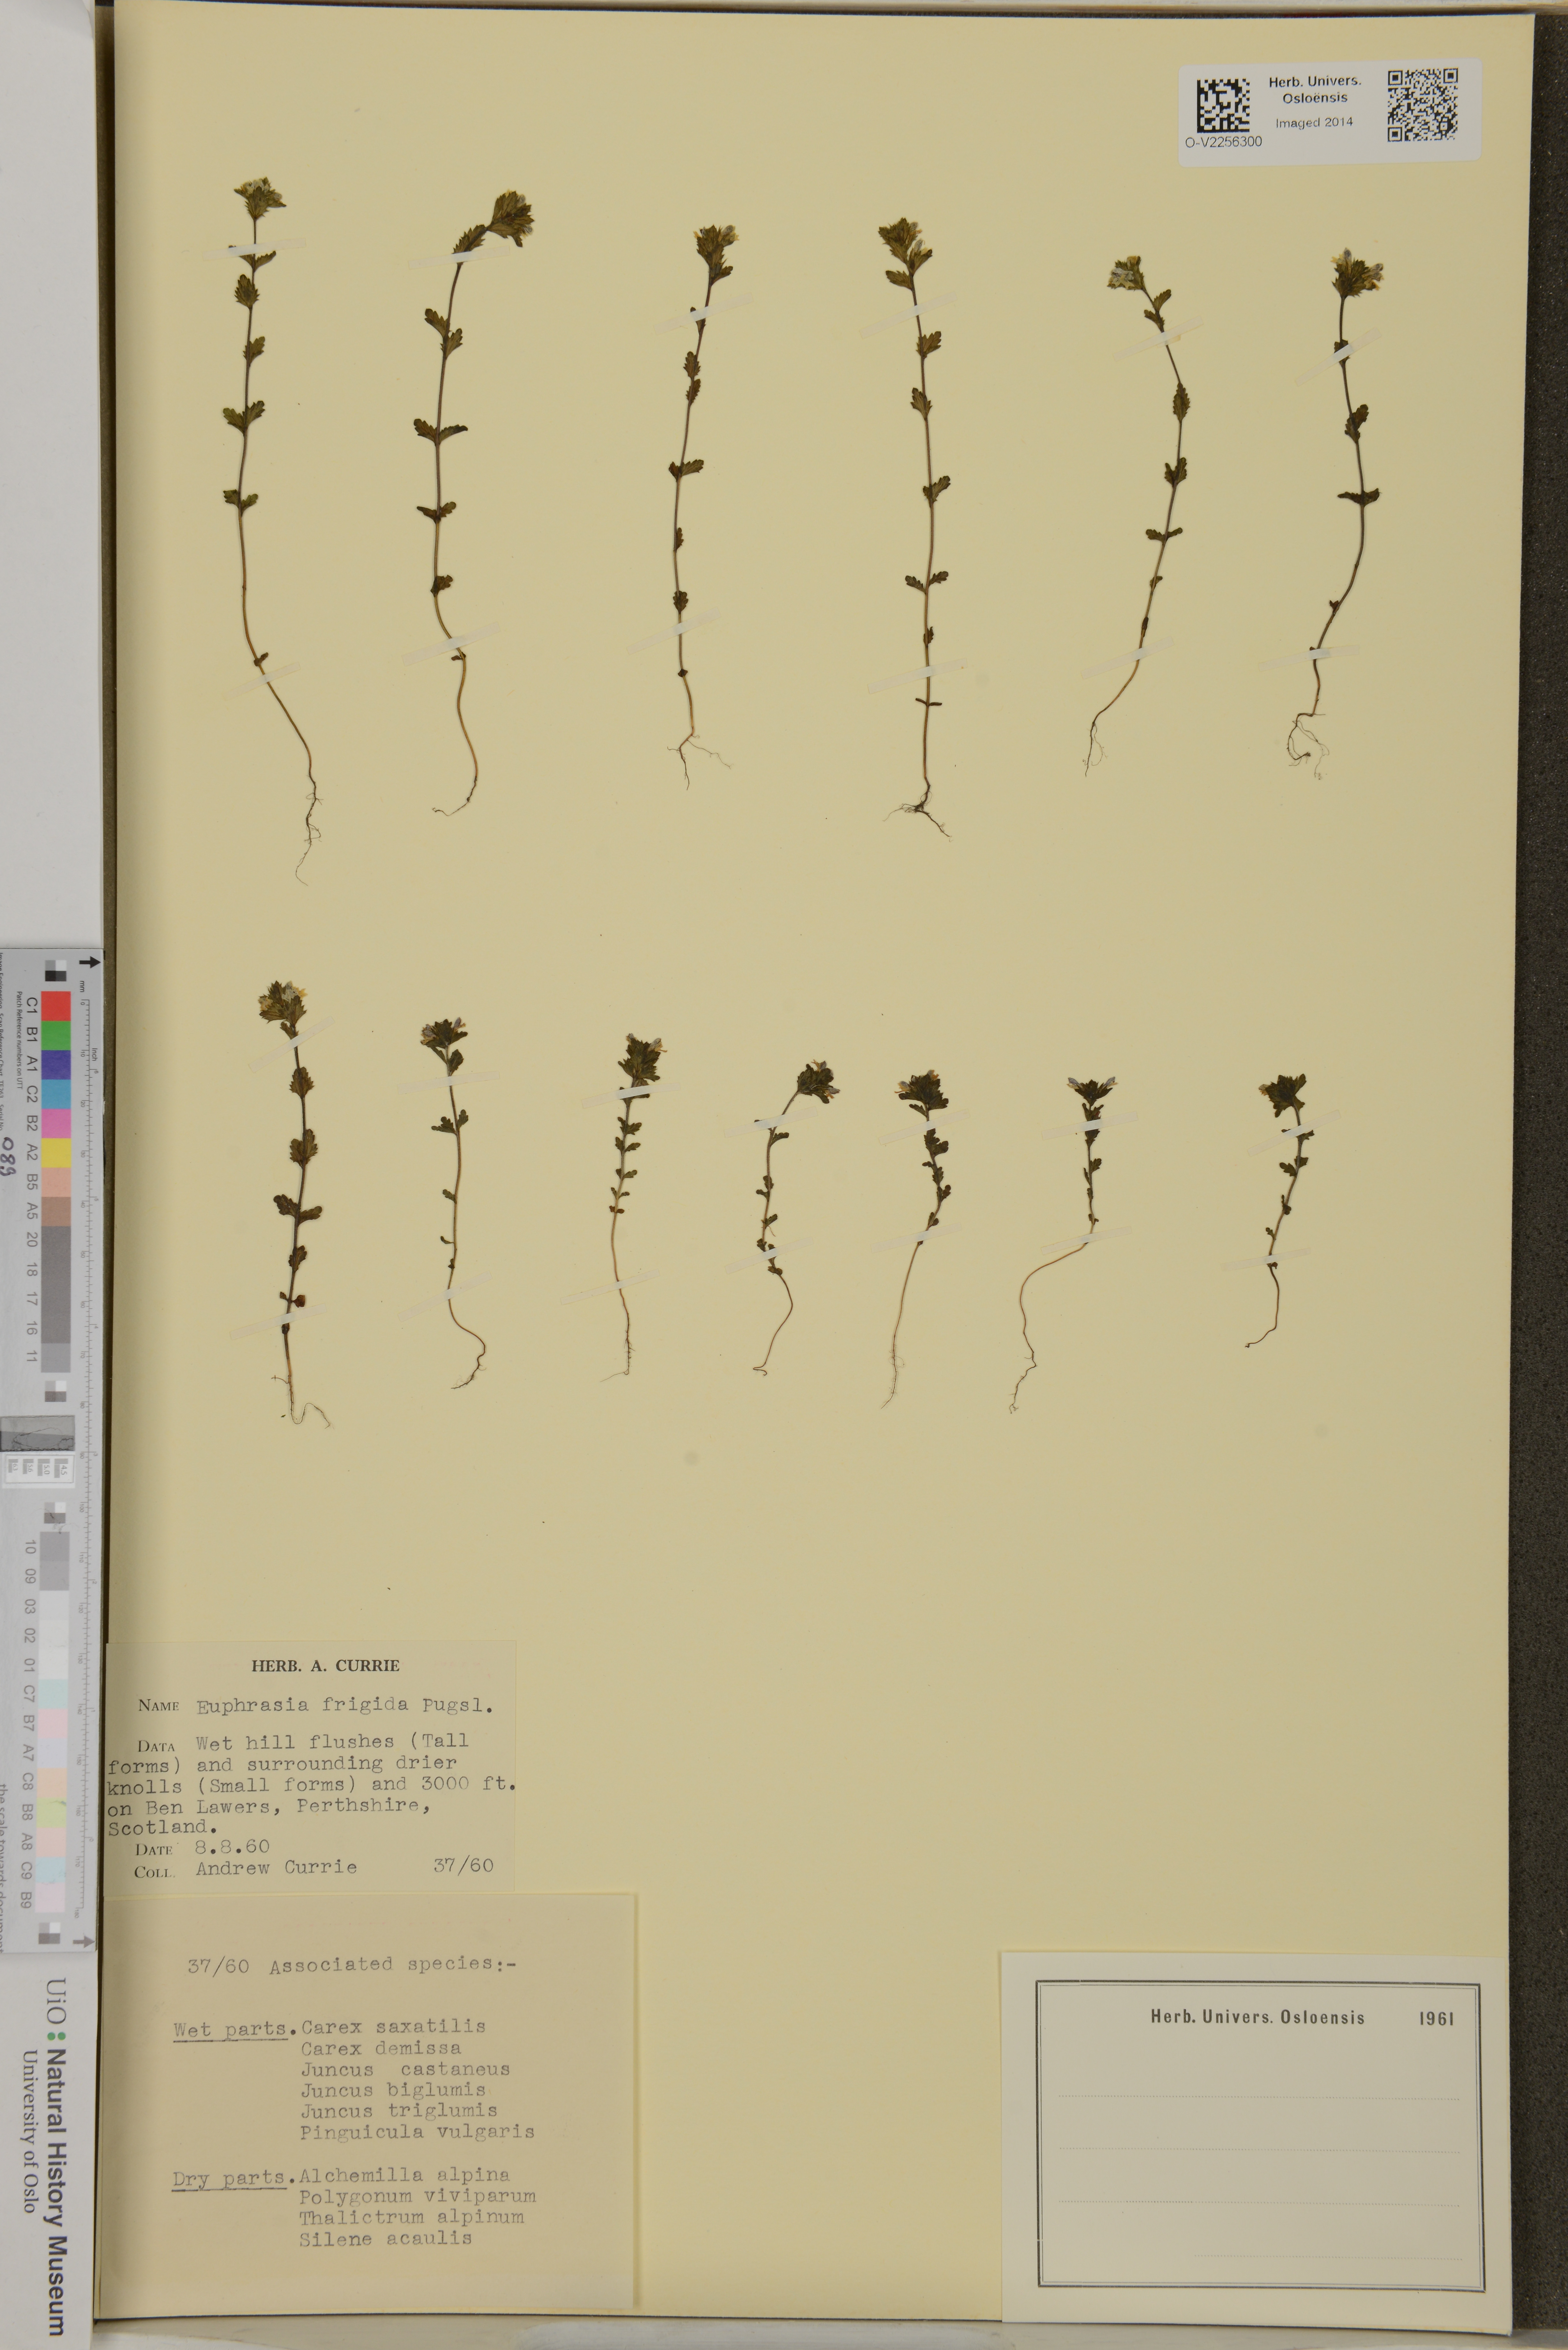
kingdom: Plantae
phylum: Tracheophyta
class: Magnoliopsida
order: Lamiales
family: Orobanchaceae
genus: Euphrasia
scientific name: Euphrasia frigida
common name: An eyebright
